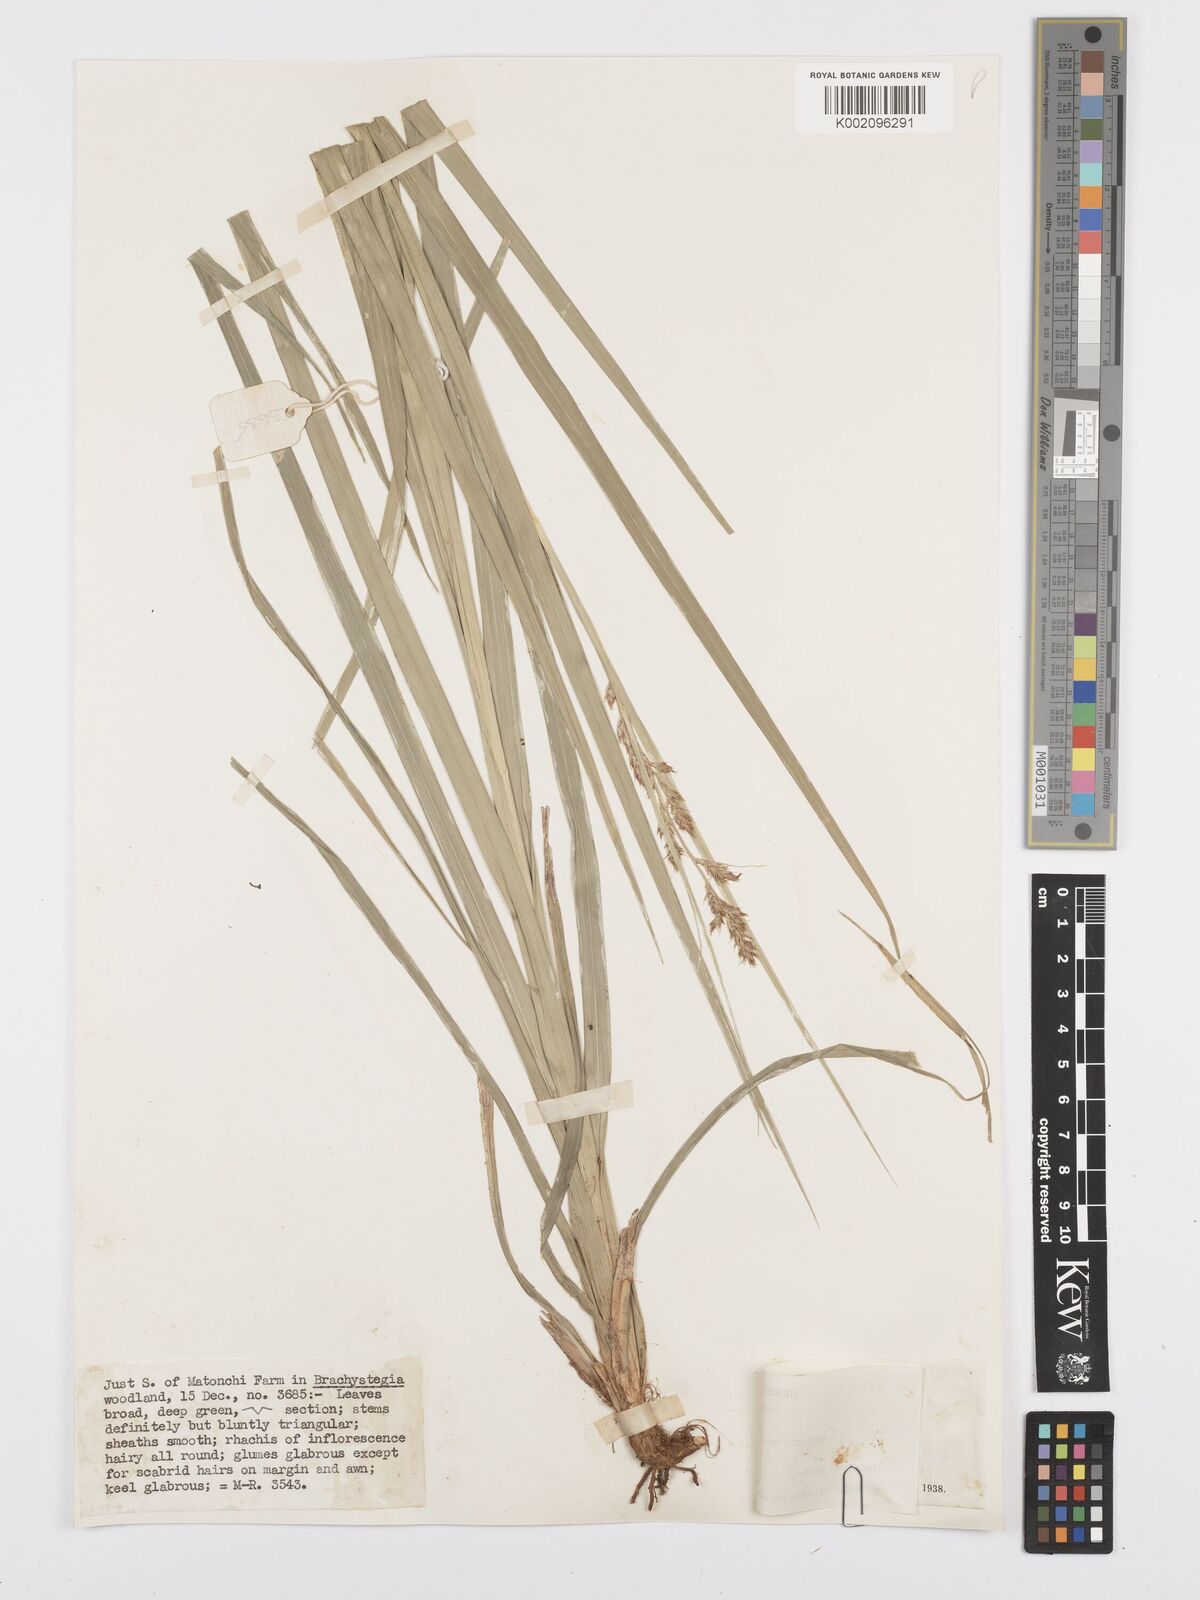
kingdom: Plantae
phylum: Tracheophyta
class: Liliopsida
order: Poales
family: Cyperaceae
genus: Carex
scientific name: Carex spicatopaniculata
